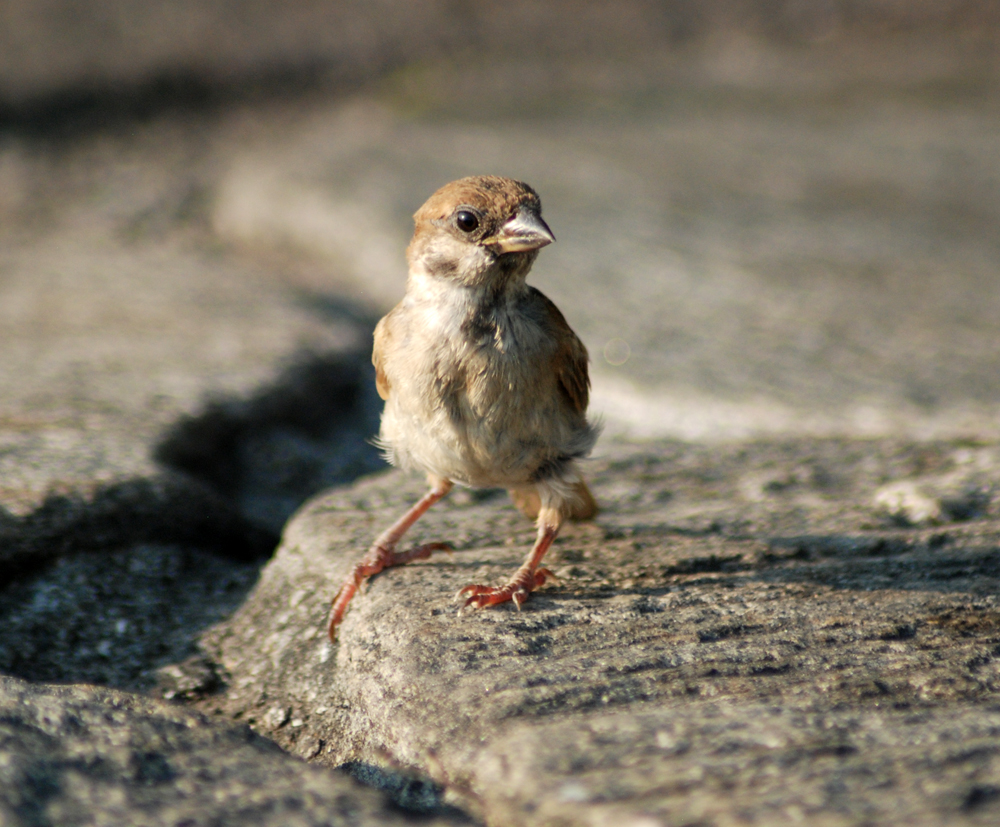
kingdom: Animalia
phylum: Chordata
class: Aves
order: Passeriformes
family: Passeridae
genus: Passer
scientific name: Passer montanus
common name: Eurasian tree sparrow
